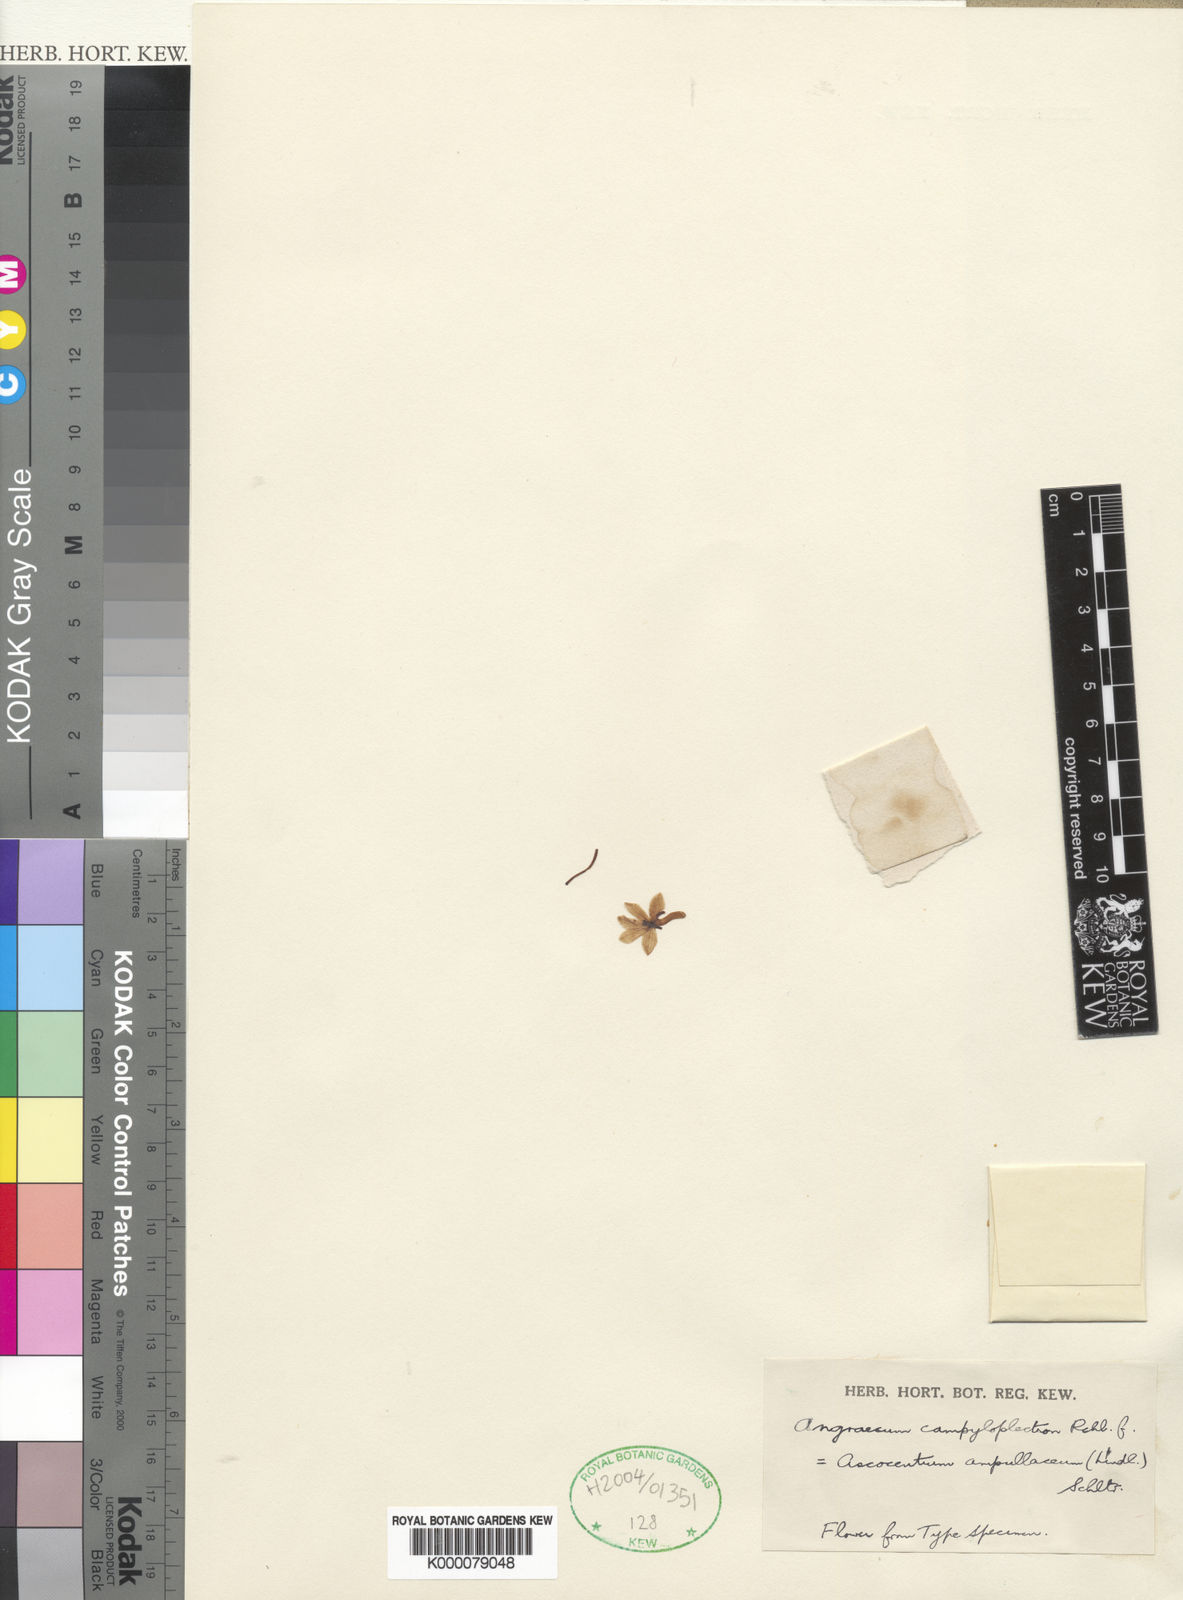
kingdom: Plantae
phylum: Tracheophyta
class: Liliopsida
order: Asparagales
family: Orchidaceae
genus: Vanda
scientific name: Vanda ampullacea
